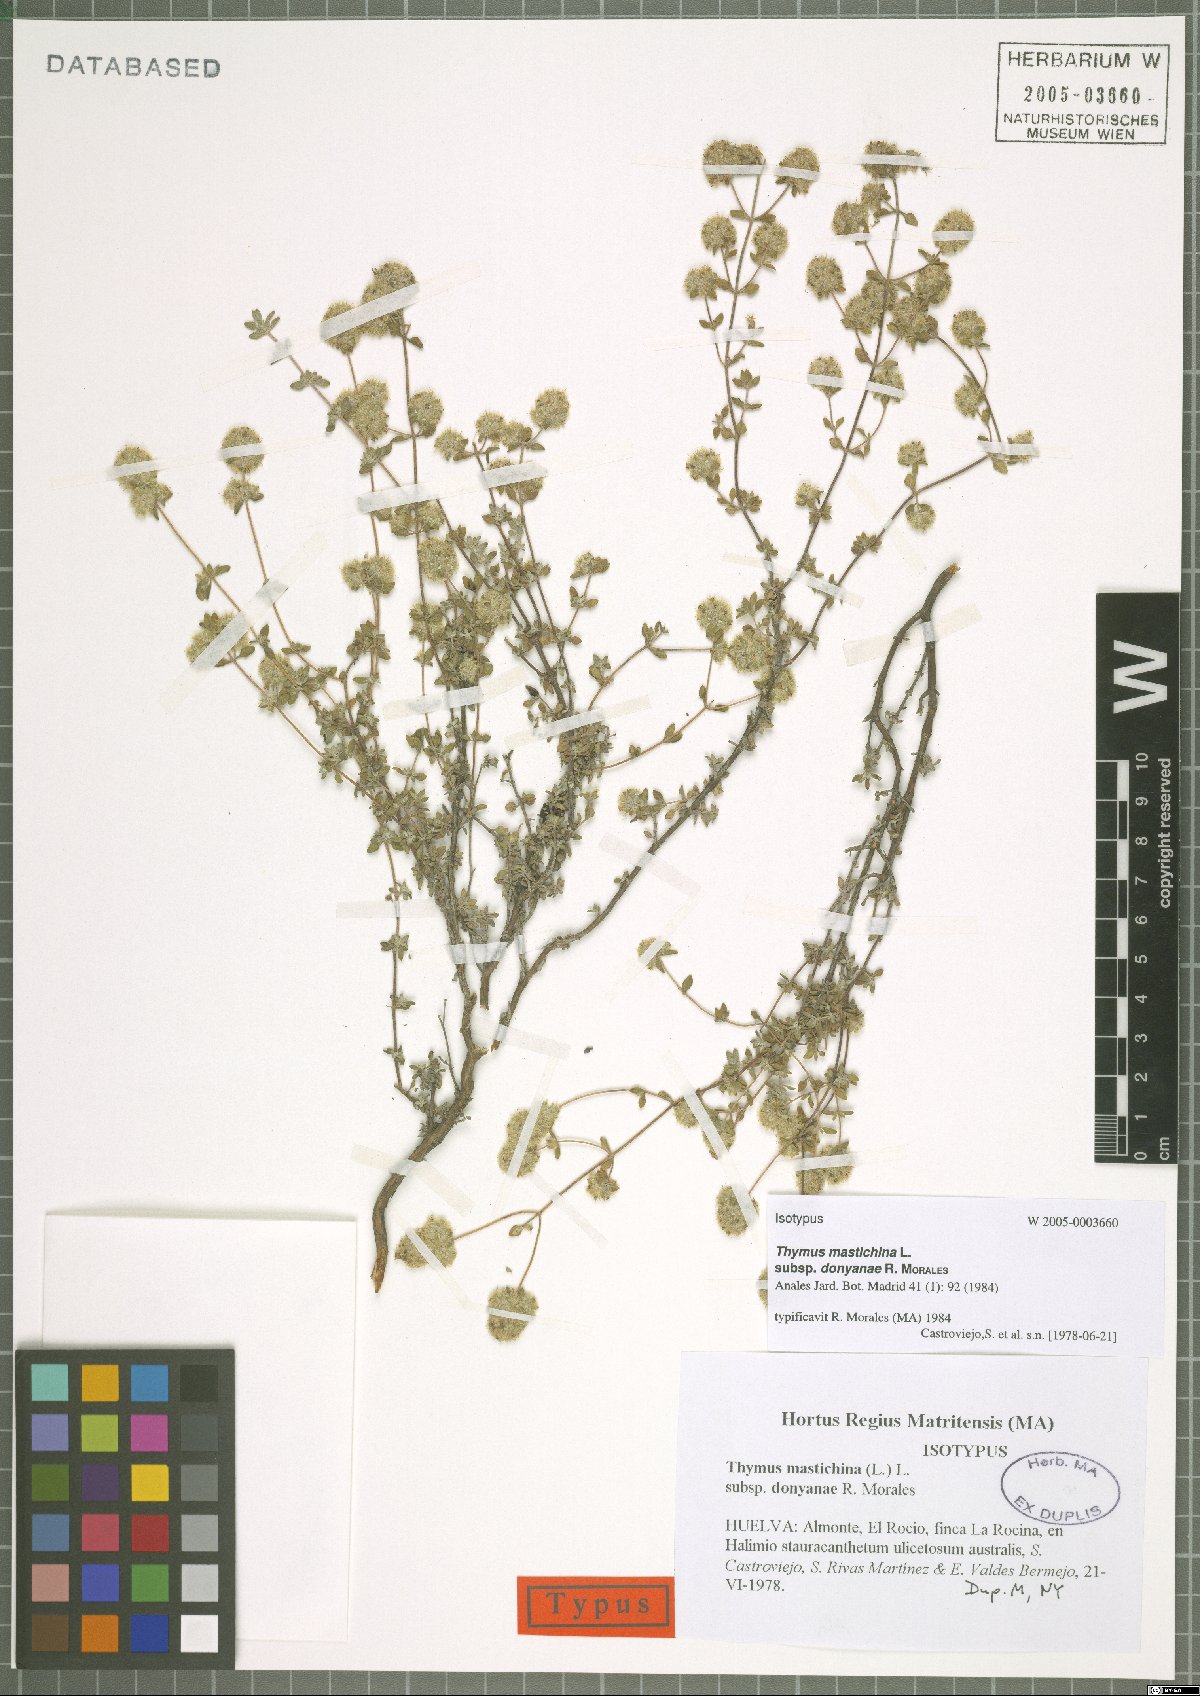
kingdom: Plantae
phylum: Tracheophyta
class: Magnoliopsida
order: Lamiales
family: Lamiaceae
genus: Thymus
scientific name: Thymus mastichina
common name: Mastic thyme
